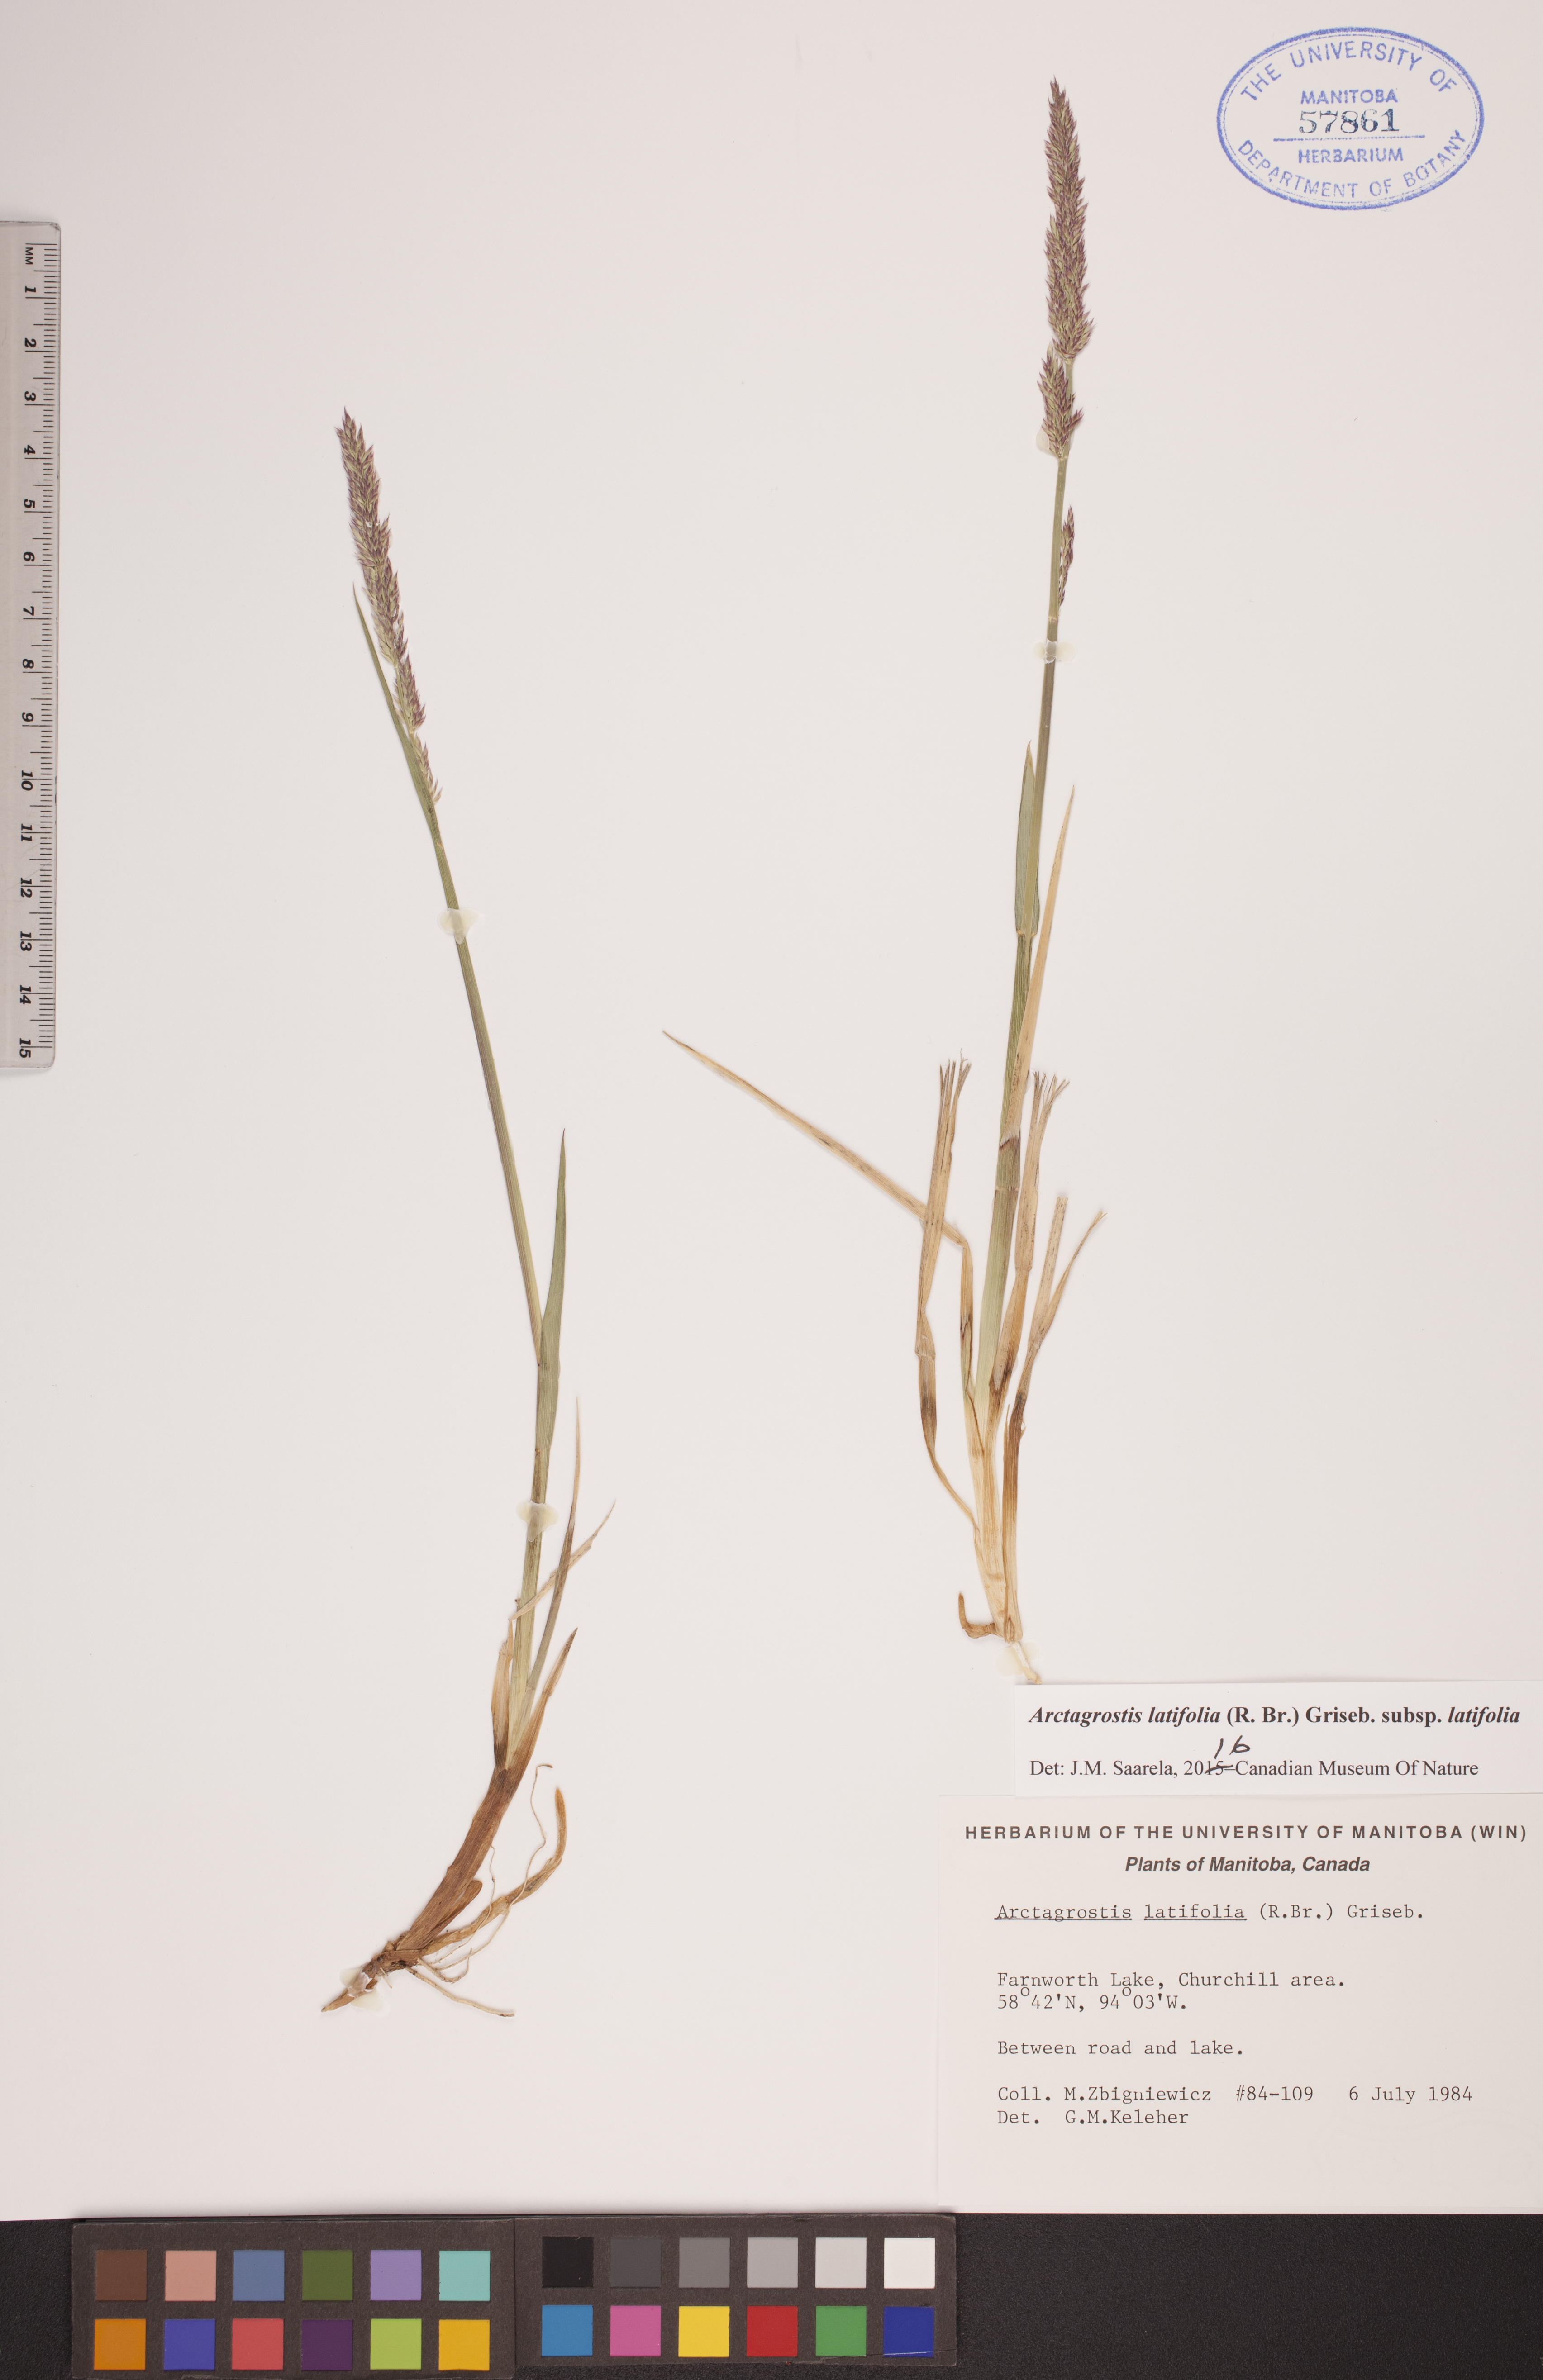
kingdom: Plantae
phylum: Tracheophyta
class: Liliopsida
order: Poales
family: Poaceae
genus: Arctagrostis
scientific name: Arctagrostis latifolia
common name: Arctic grass
